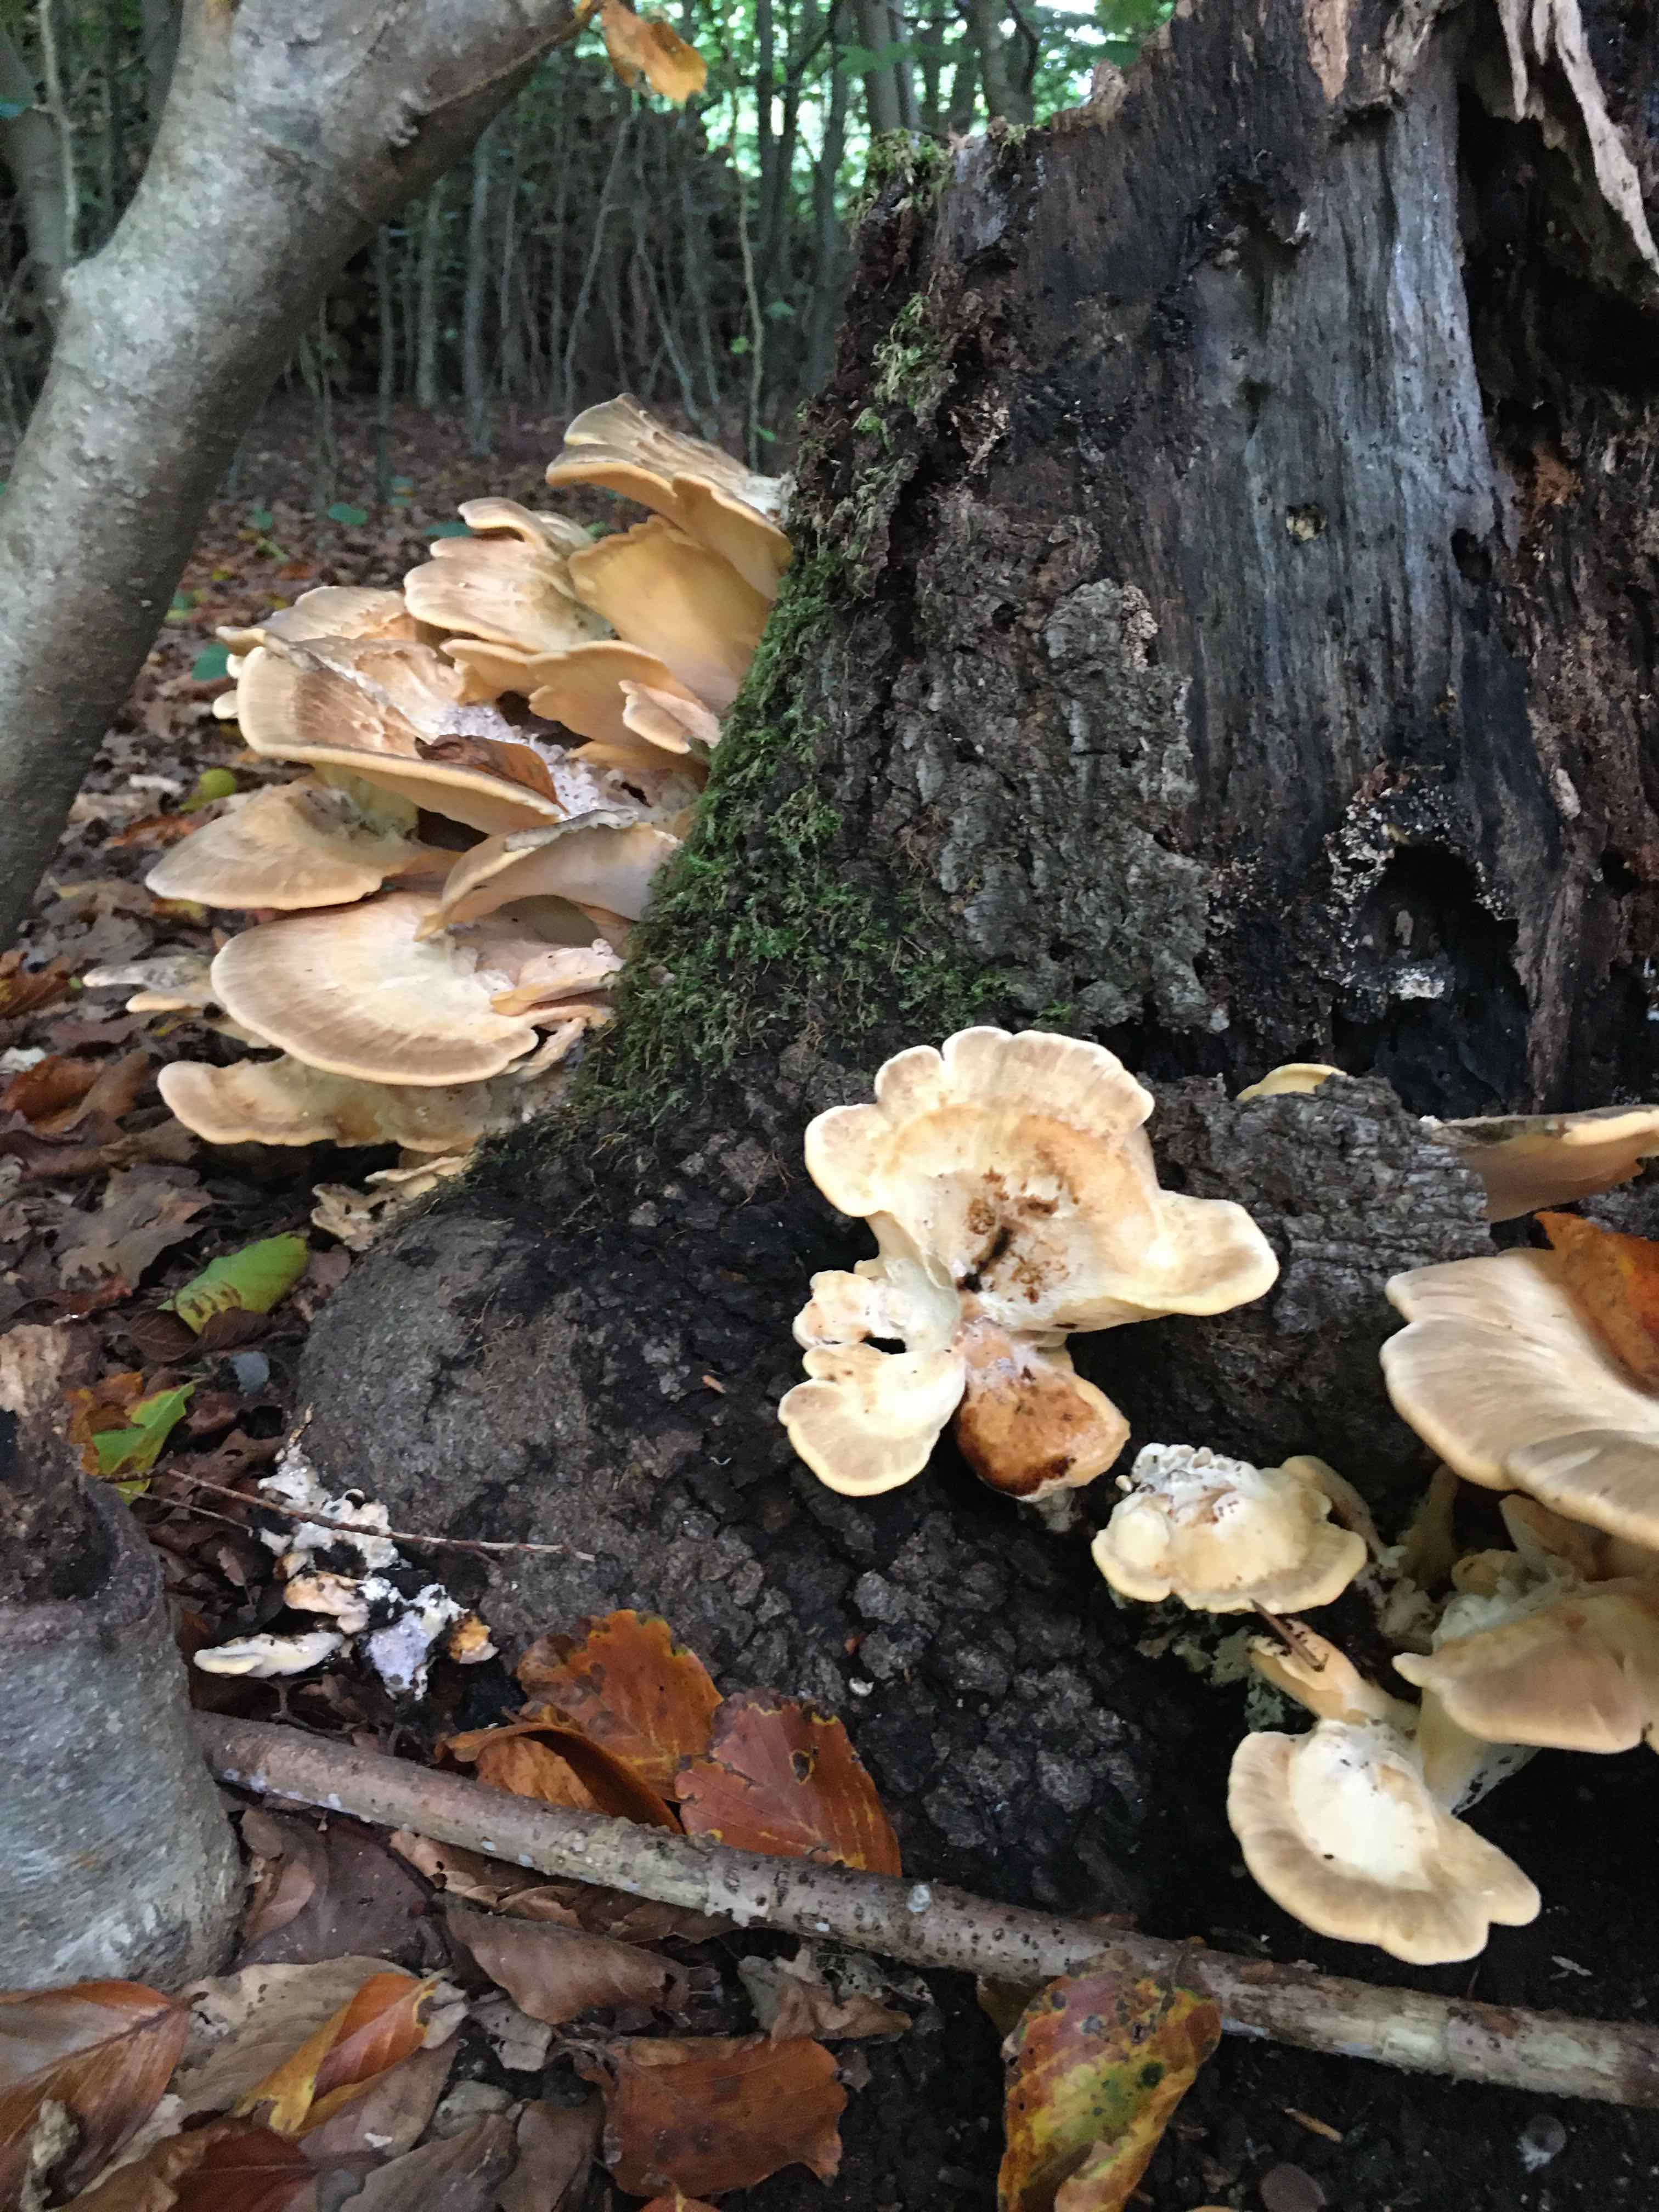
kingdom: Fungi
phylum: Basidiomycota
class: Agaricomycetes
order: Polyporales
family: Meripilaceae
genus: Meripilus
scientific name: Meripilus giganteus
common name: kæmpeporesvamp
